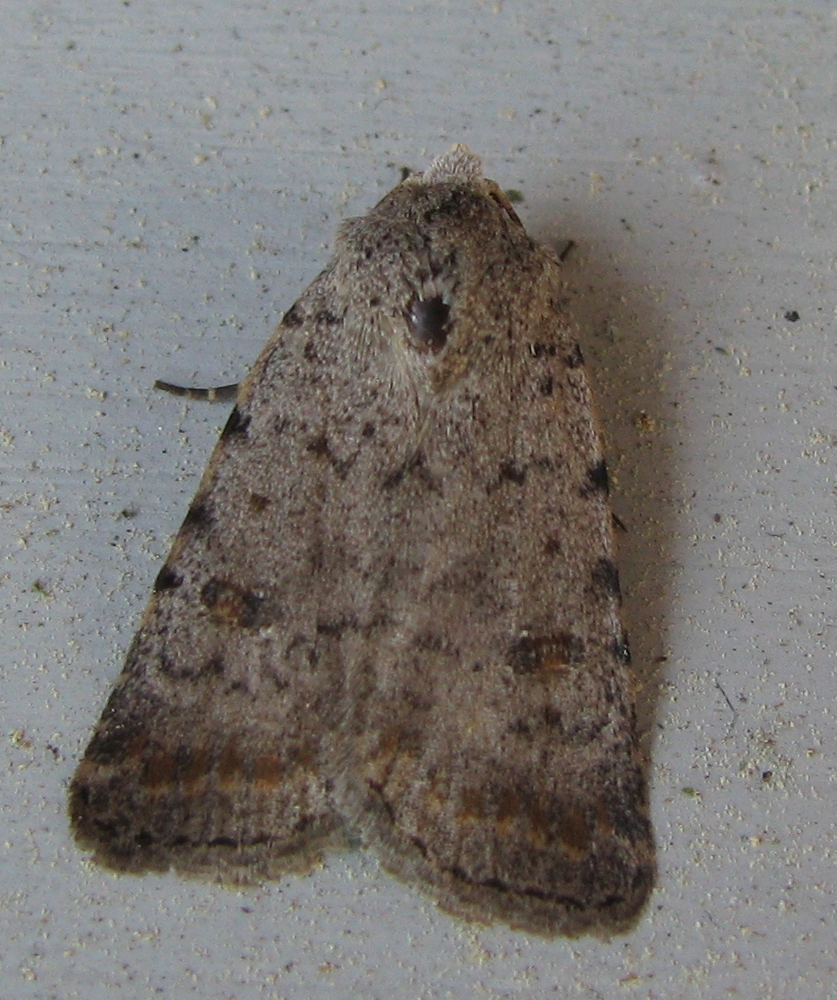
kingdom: Animalia
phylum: Arthropoda
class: Insecta
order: Lepidoptera
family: Noctuidae
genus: Caradrina
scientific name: Caradrina selini
